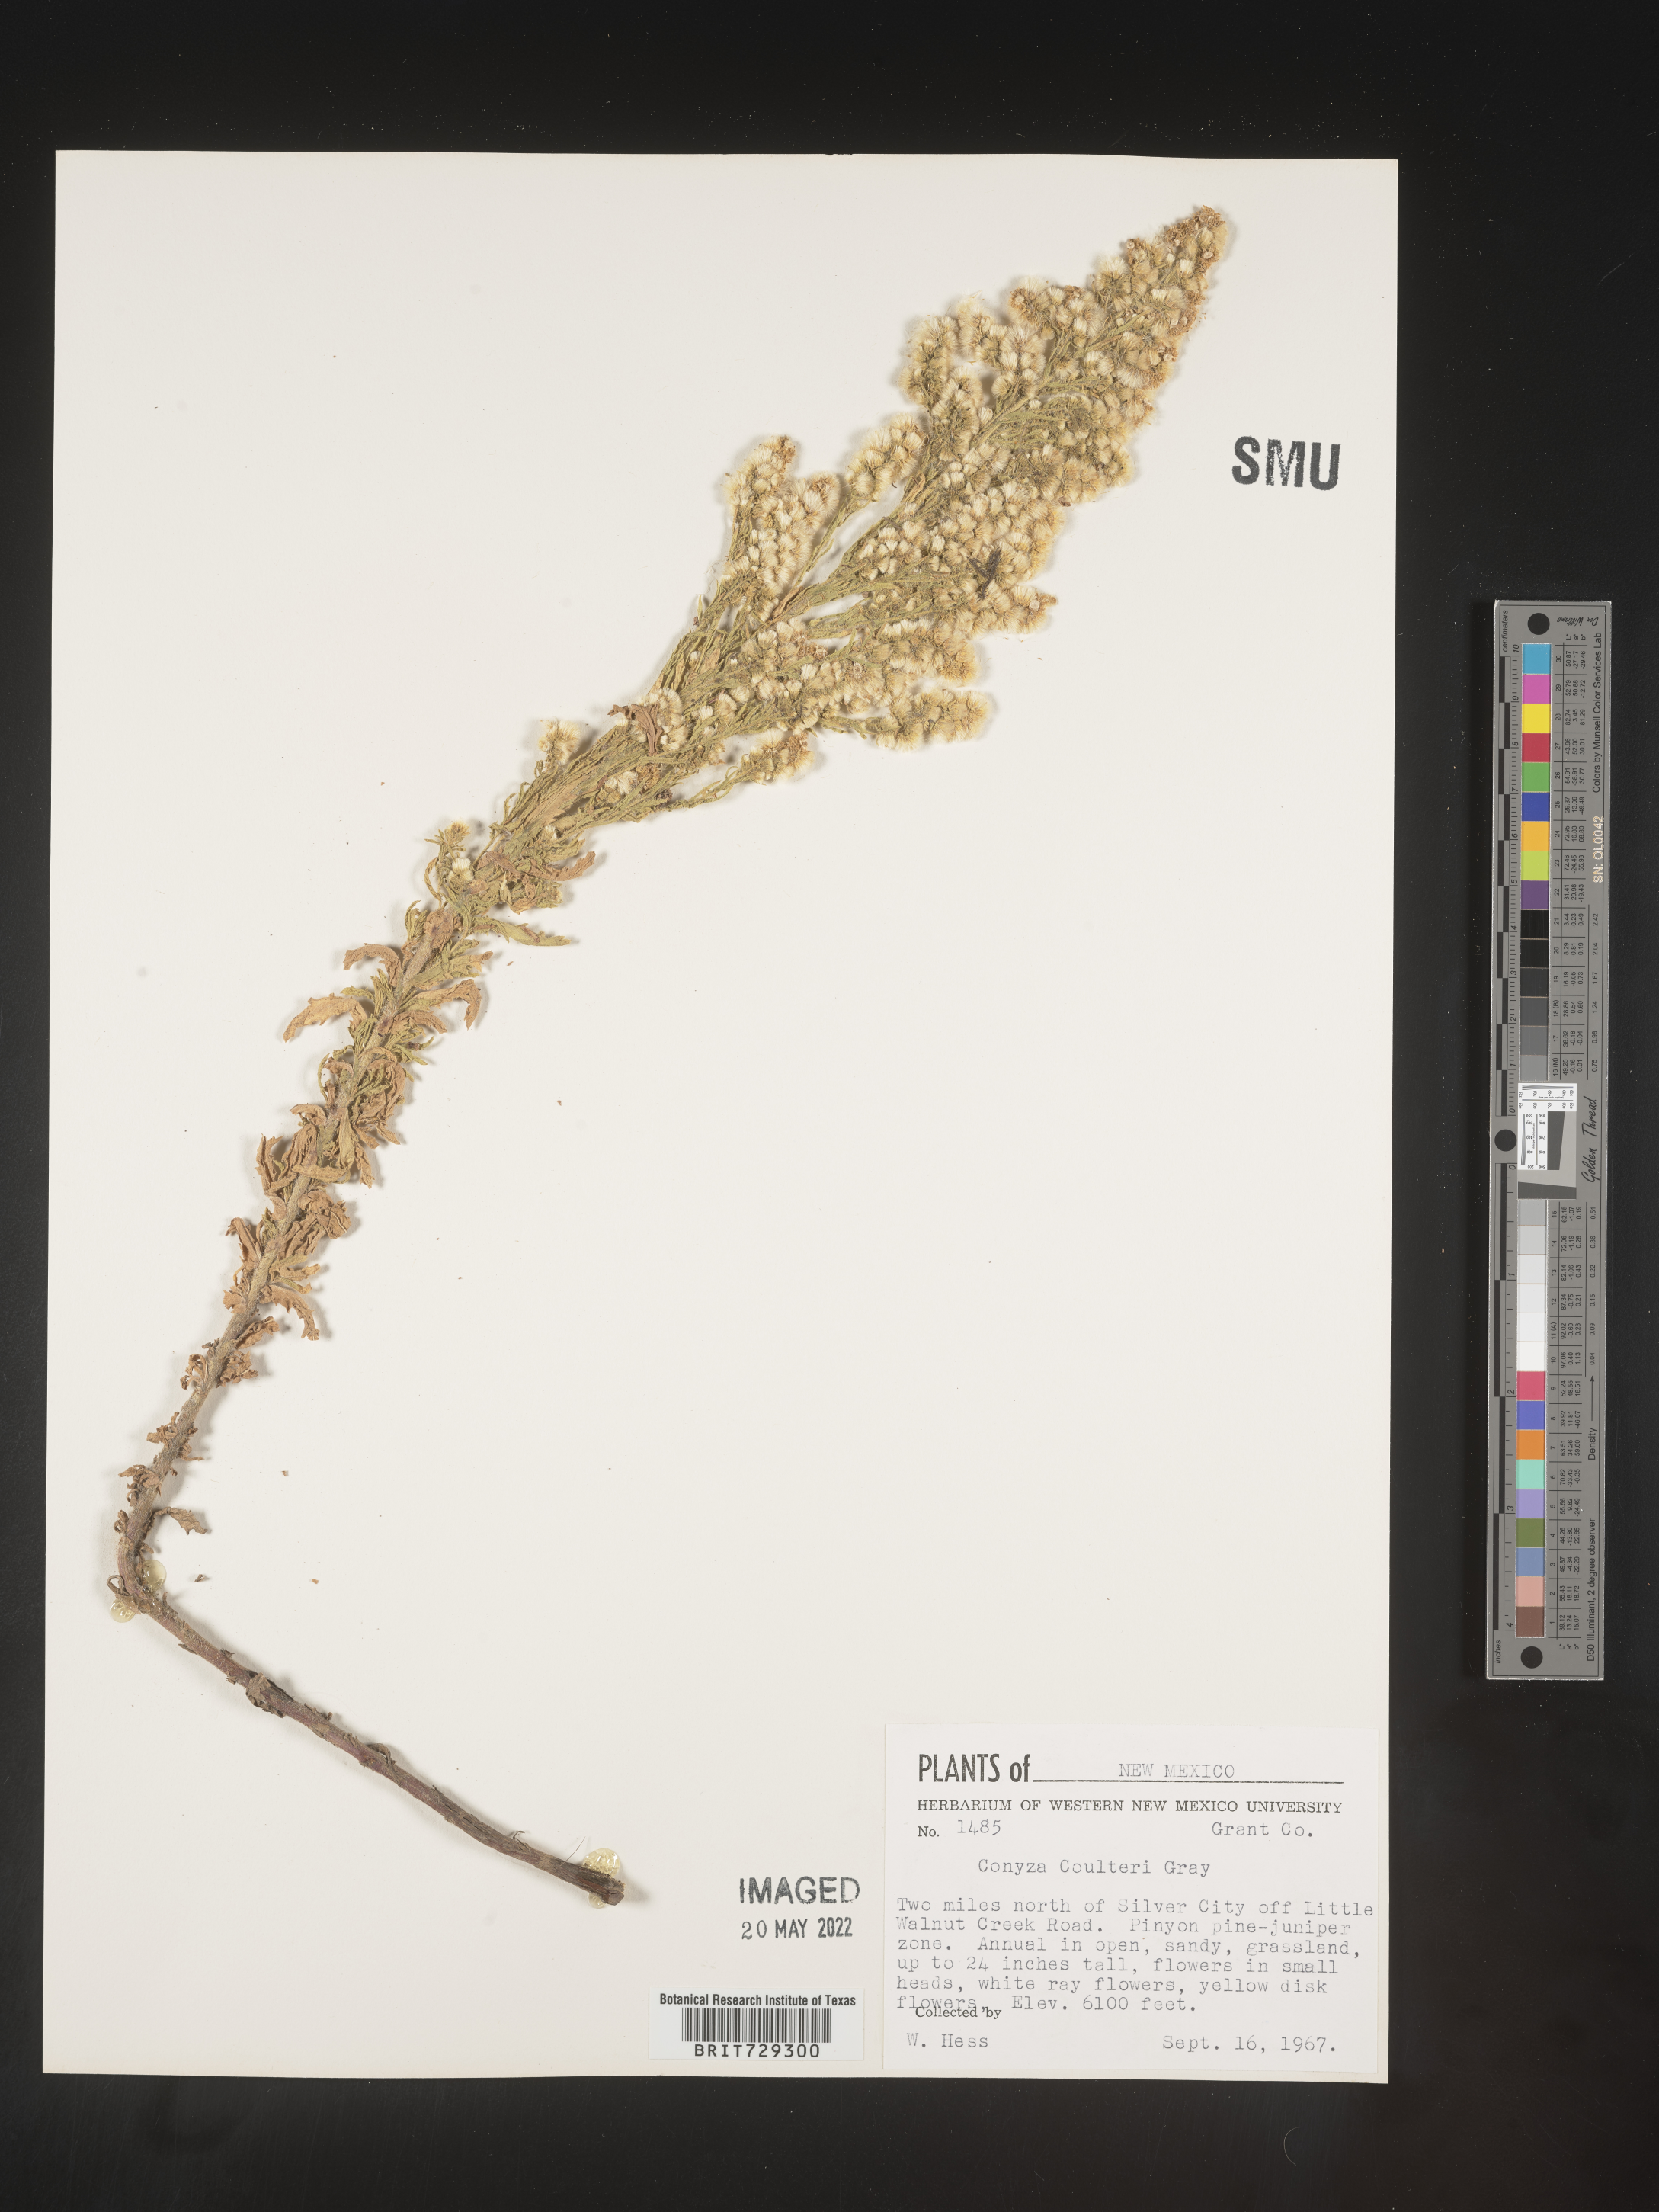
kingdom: Plantae
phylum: Tracheophyta
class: Magnoliopsida
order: Asterales
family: Asteraceae
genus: Laennecia
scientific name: Laennecia coulteri
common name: Coulter's woolwort
